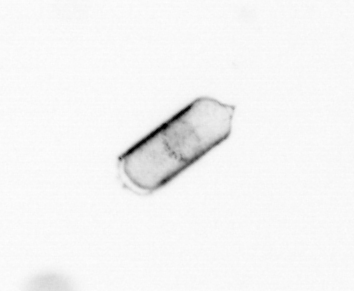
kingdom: Chromista
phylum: Ochrophyta
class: Bacillariophyceae
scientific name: Bacillariophyceae
